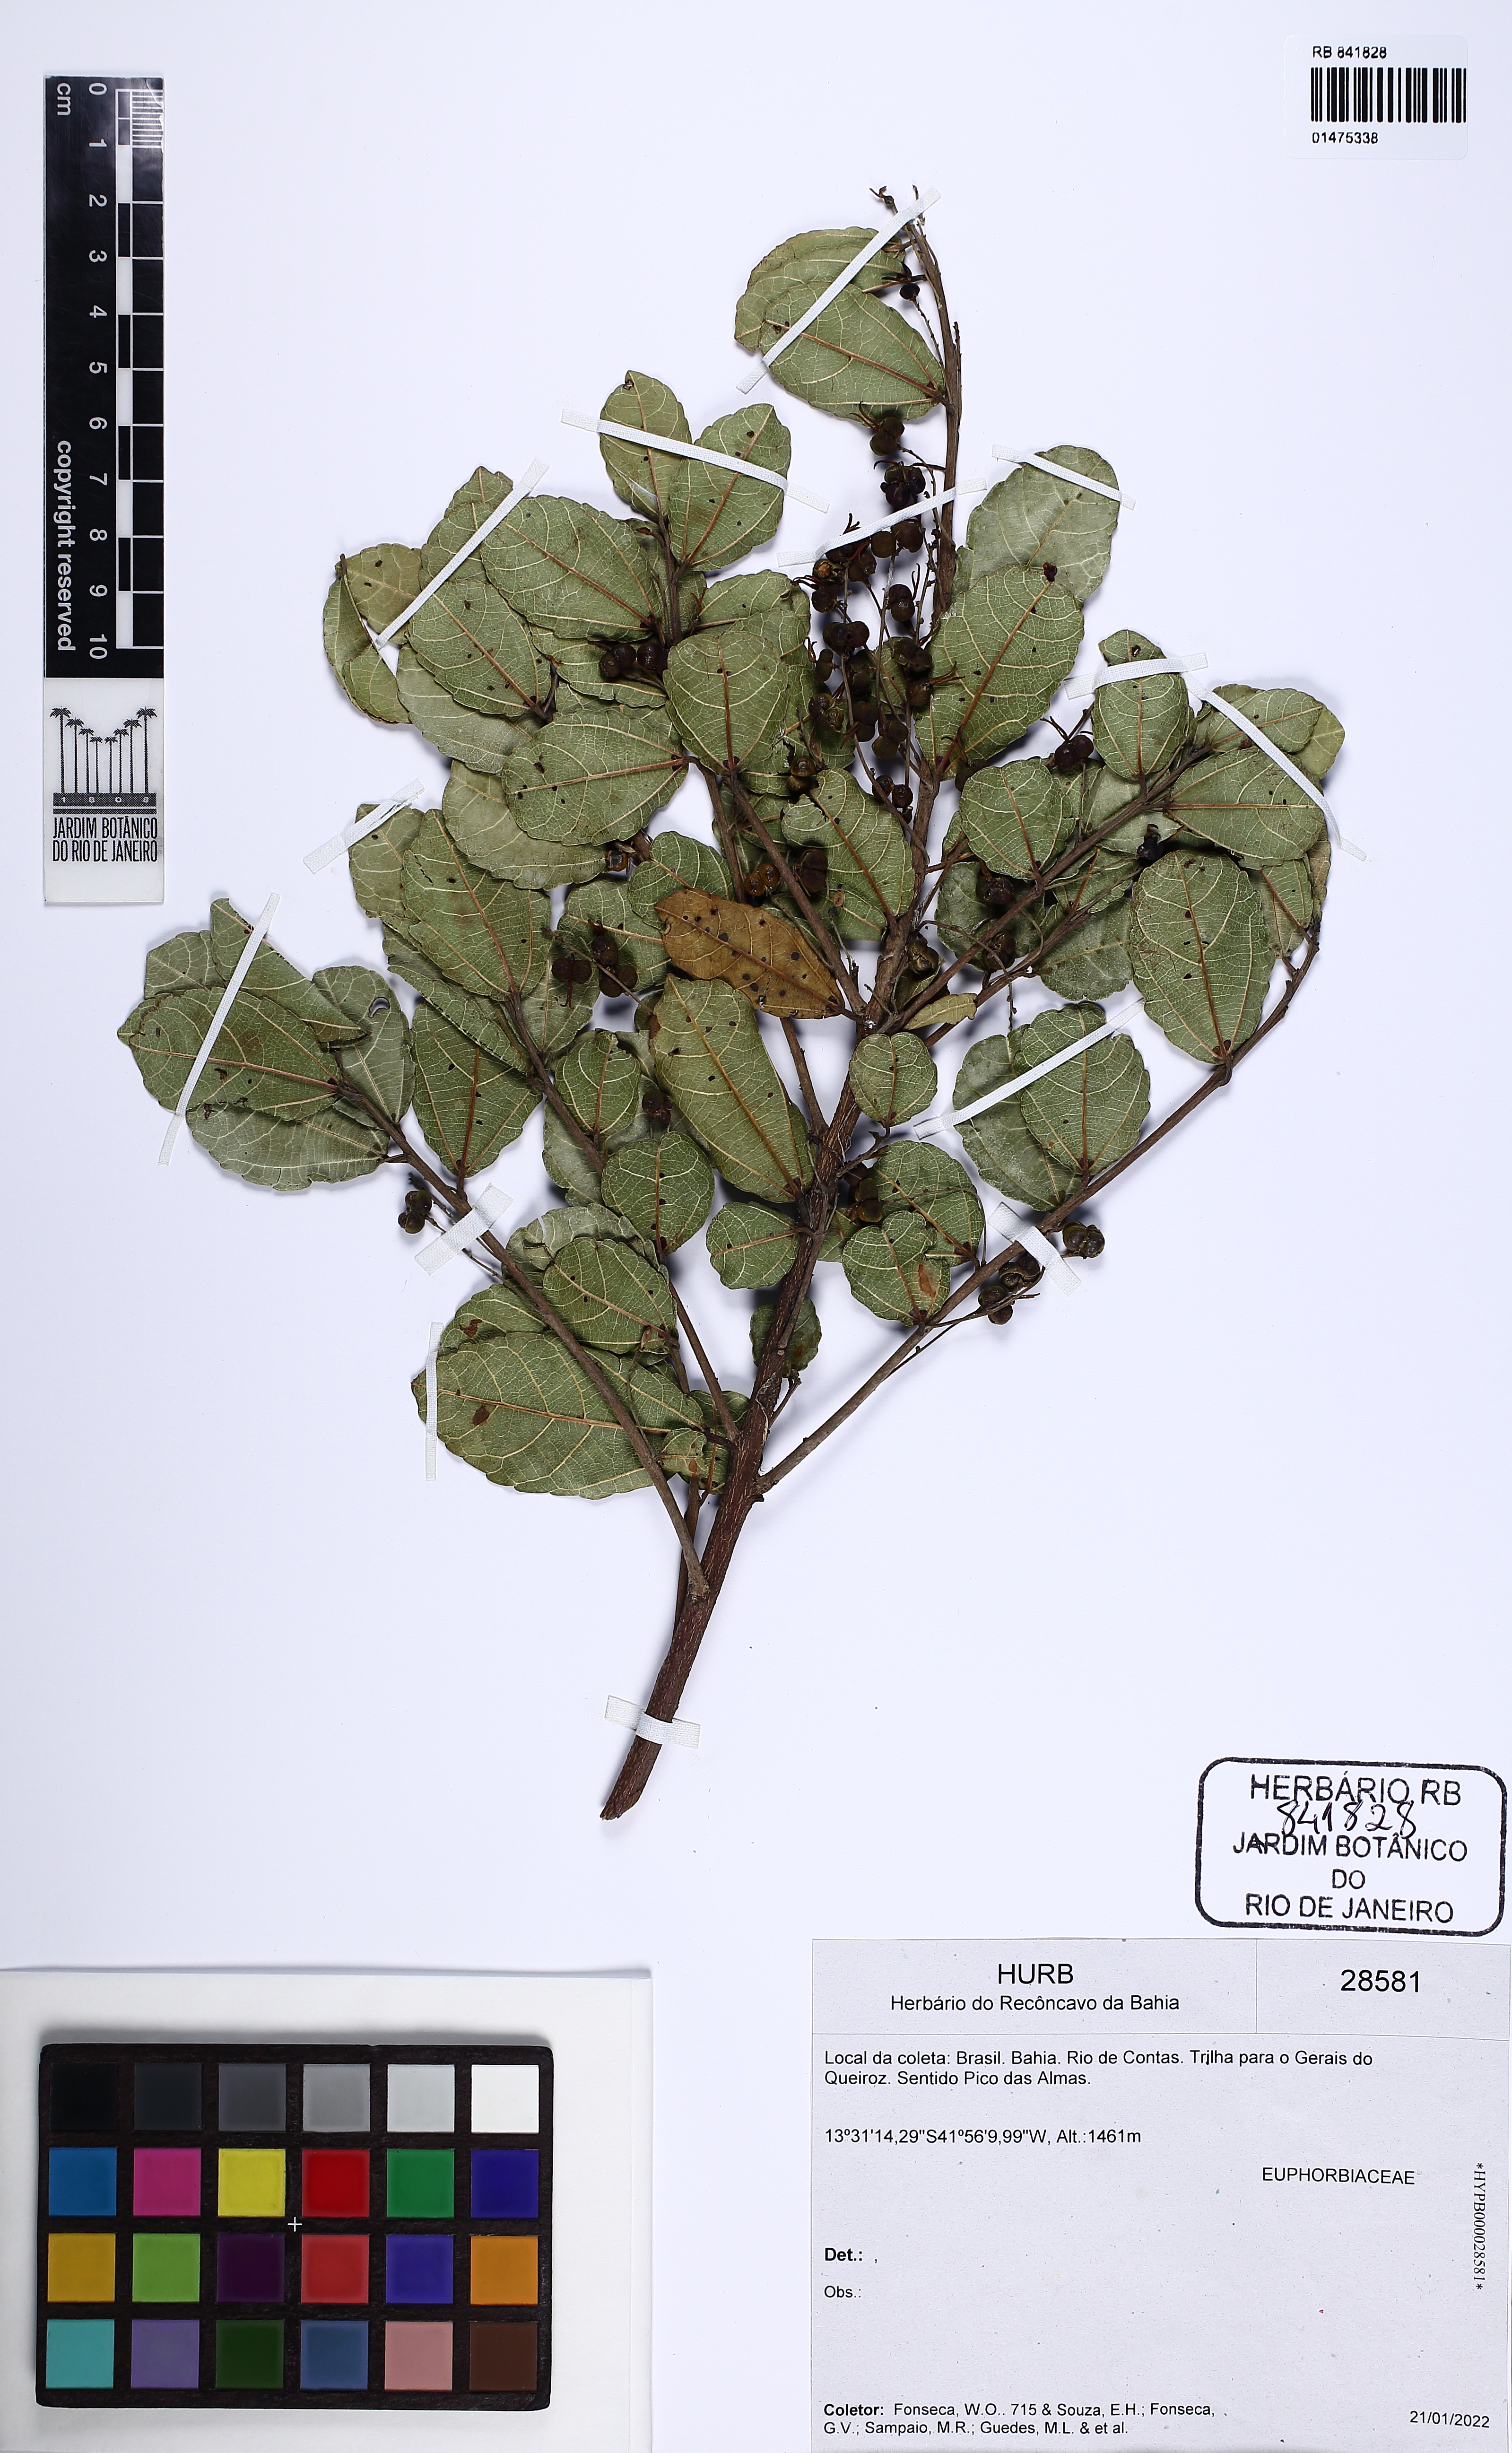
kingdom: Plantae
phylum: Tracheophyta
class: Magnoliopsida
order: Malpighiales
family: Euphorbiaceae
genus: Alchornea
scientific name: Alchornea triplinervia
